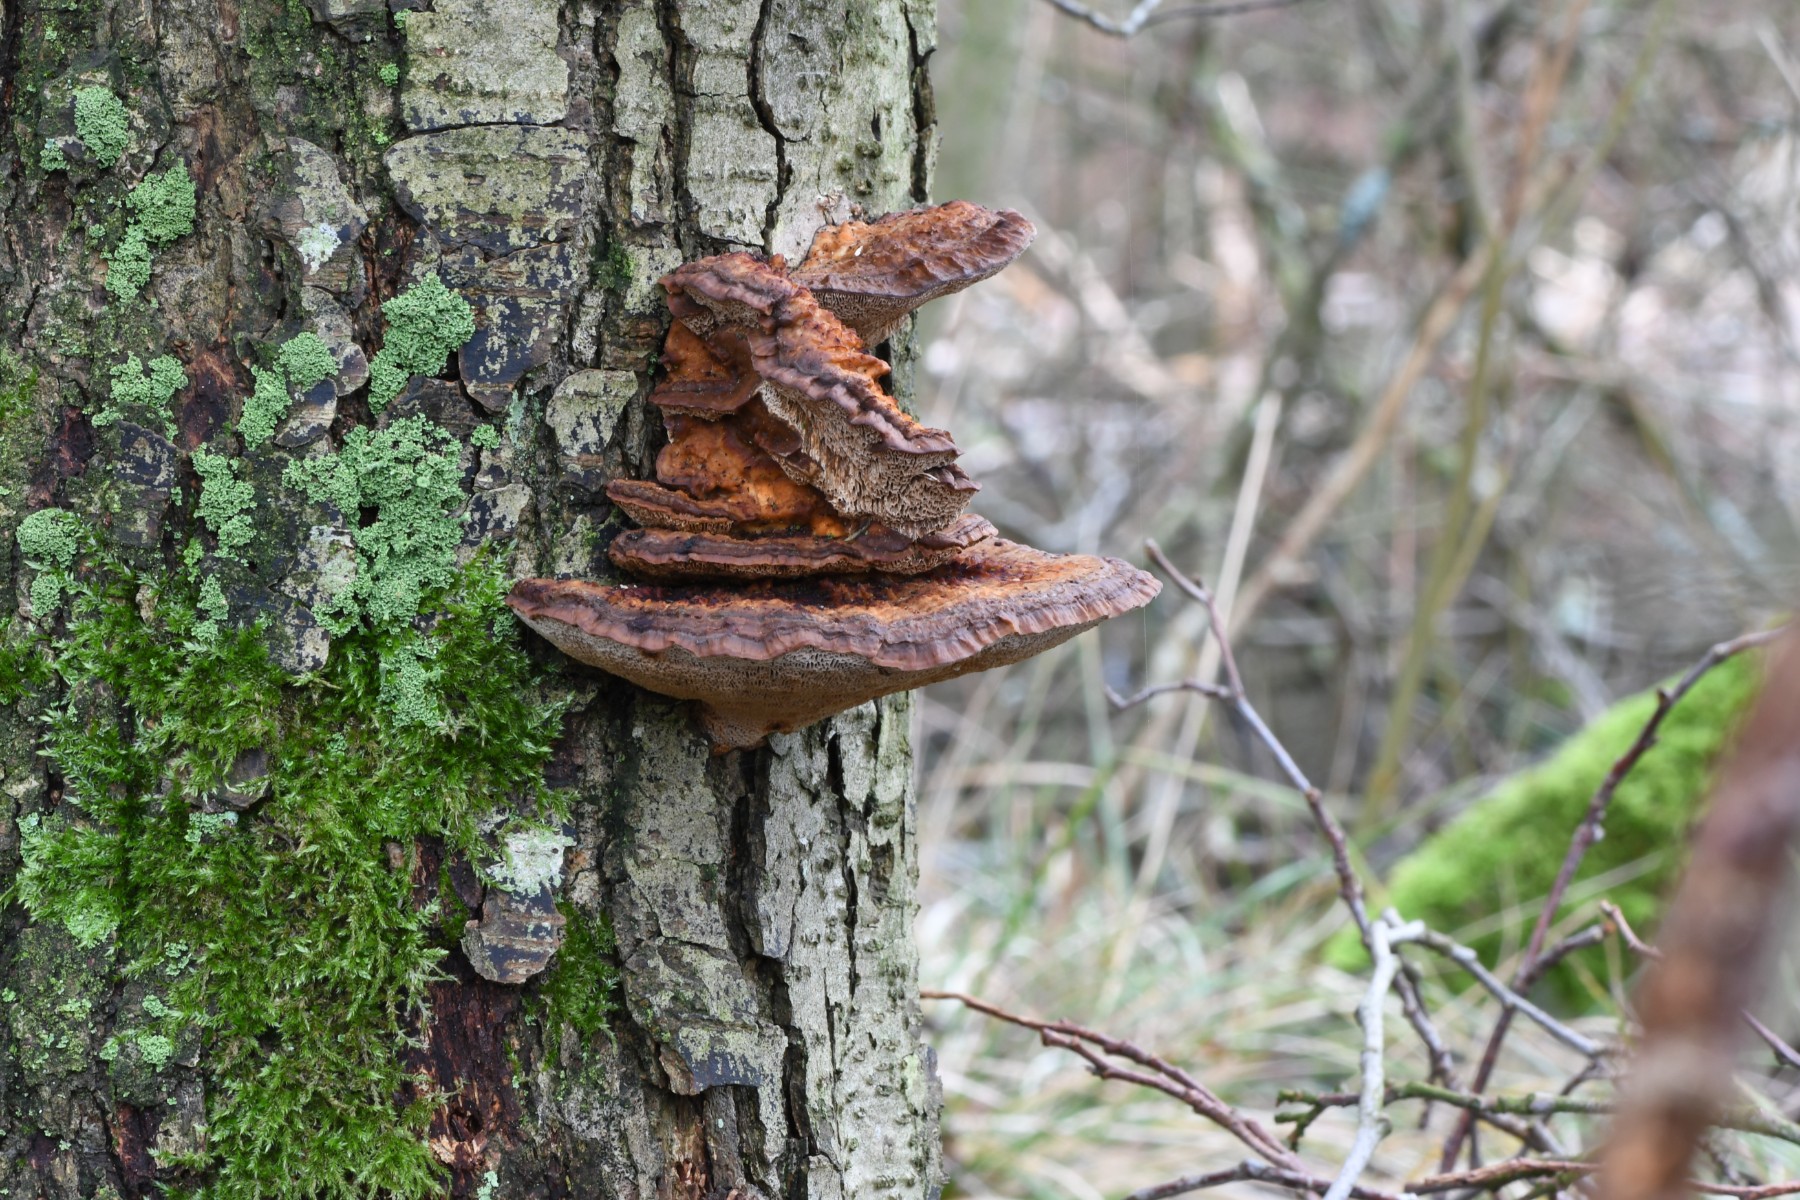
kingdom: Fungi
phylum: Basidiomycota
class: Agaricomycetes
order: Polyporales
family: Polyporaceae
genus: Daedaleopsis
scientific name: Daedaleopsis confragosa
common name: rødmende læderporesvamp
